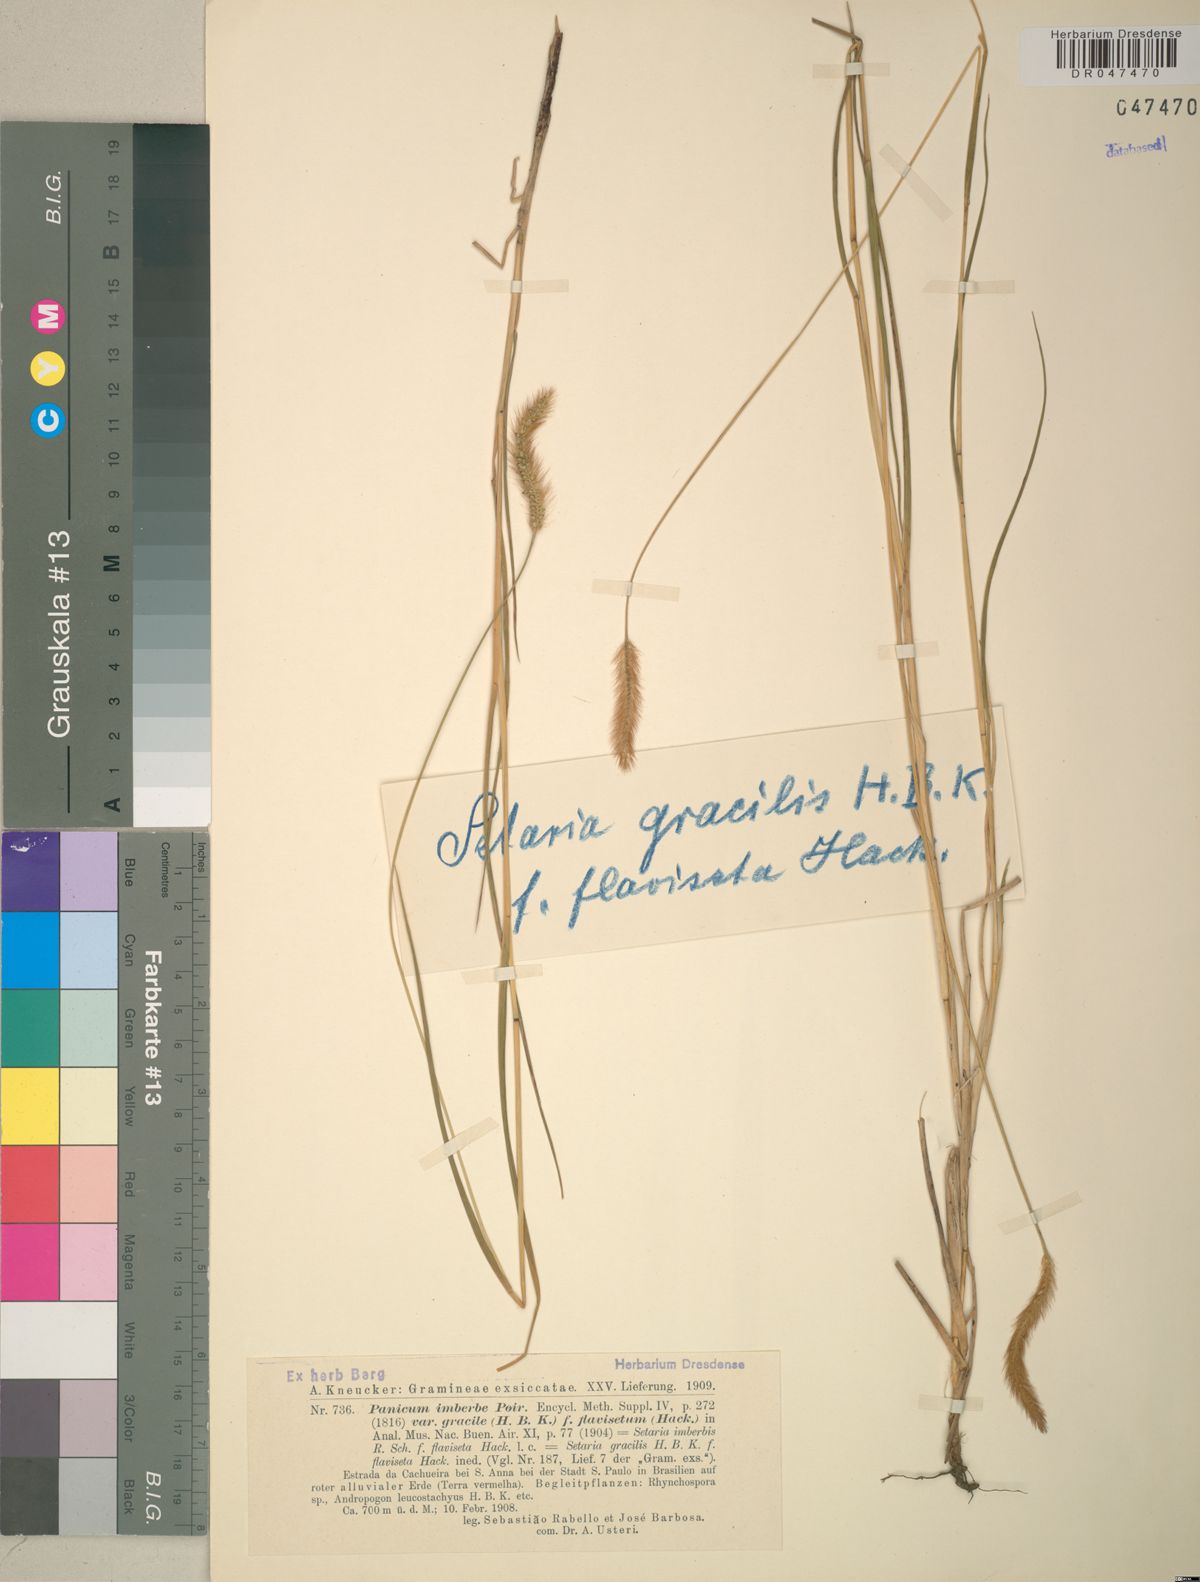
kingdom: Plantae
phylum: Tracheophyta
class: Liliopsida
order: Poales
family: Poaceae
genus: Setaria
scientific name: Setaria parviflora
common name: Knotroot bristle-grass
